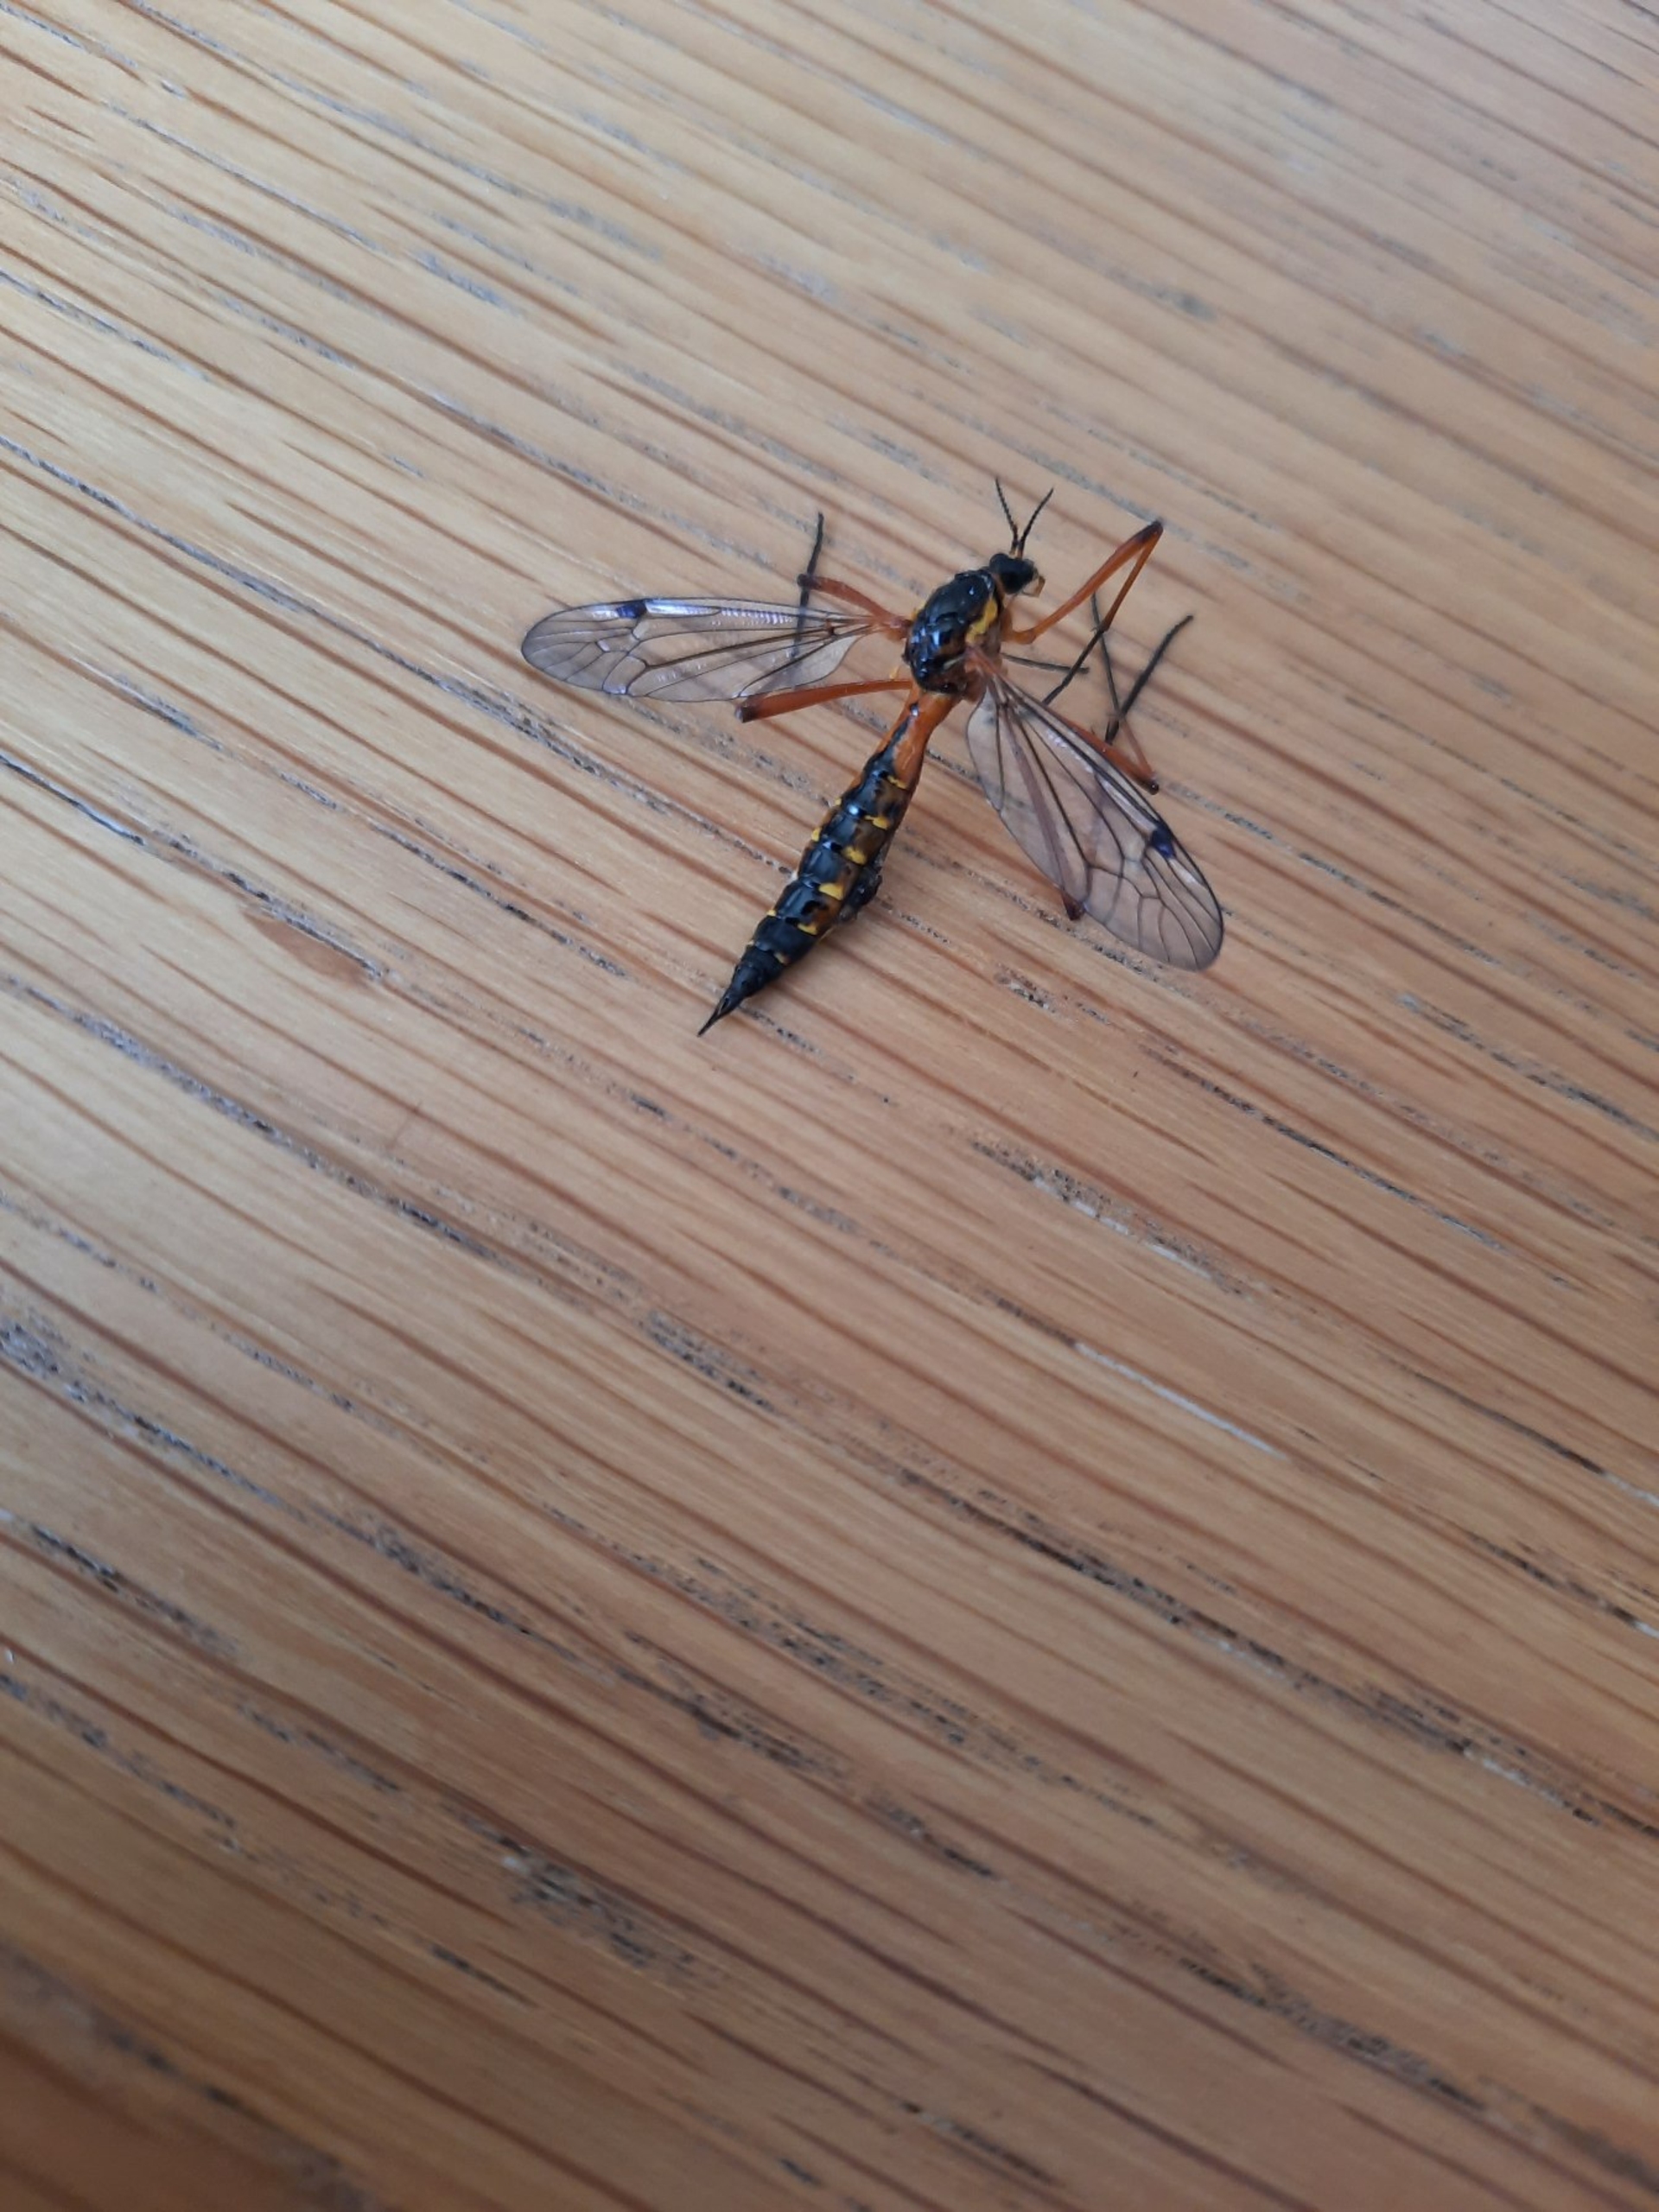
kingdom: Animalia
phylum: Arthropoda
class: Insecta
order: Diptera
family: Tipulidae
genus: Ctenophora
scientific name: Ctenophora pectinicornis
